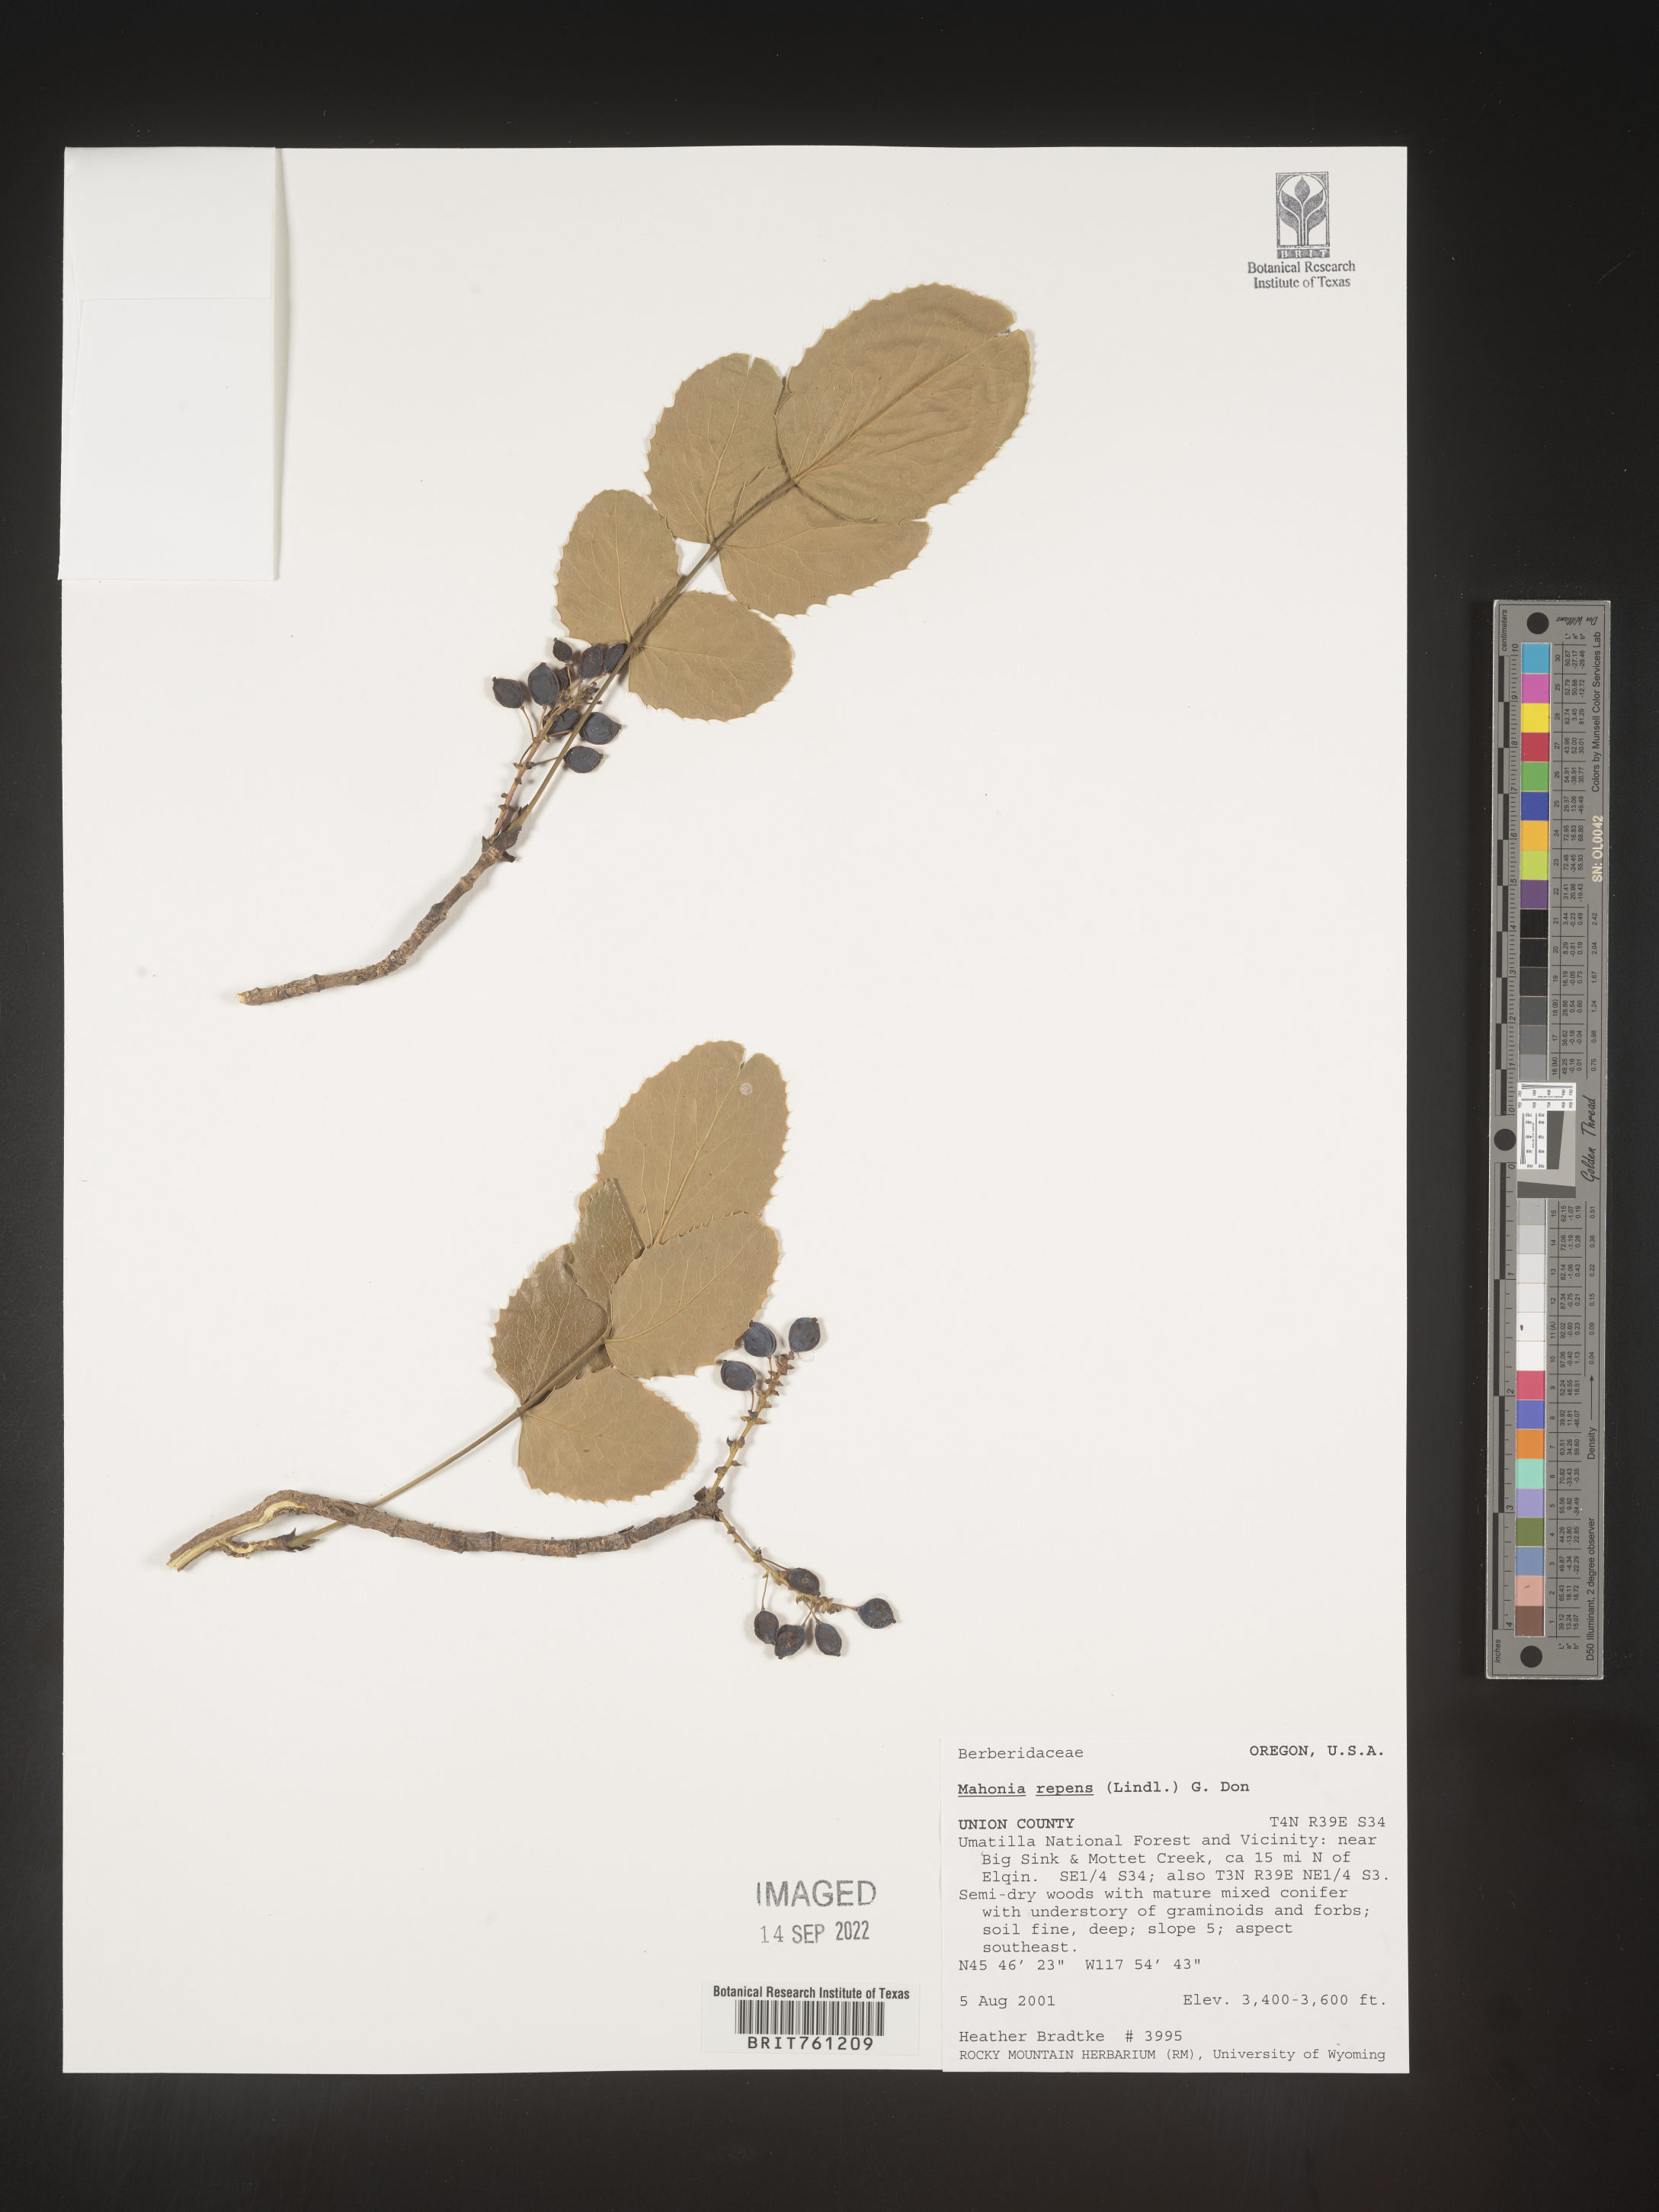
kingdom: Plantae
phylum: Tracheophyta
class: Magnoliopsida
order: Ranunculales
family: Berberidaceae
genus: Mahonia
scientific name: Mahonia repens
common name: Creeping oregon-grape
